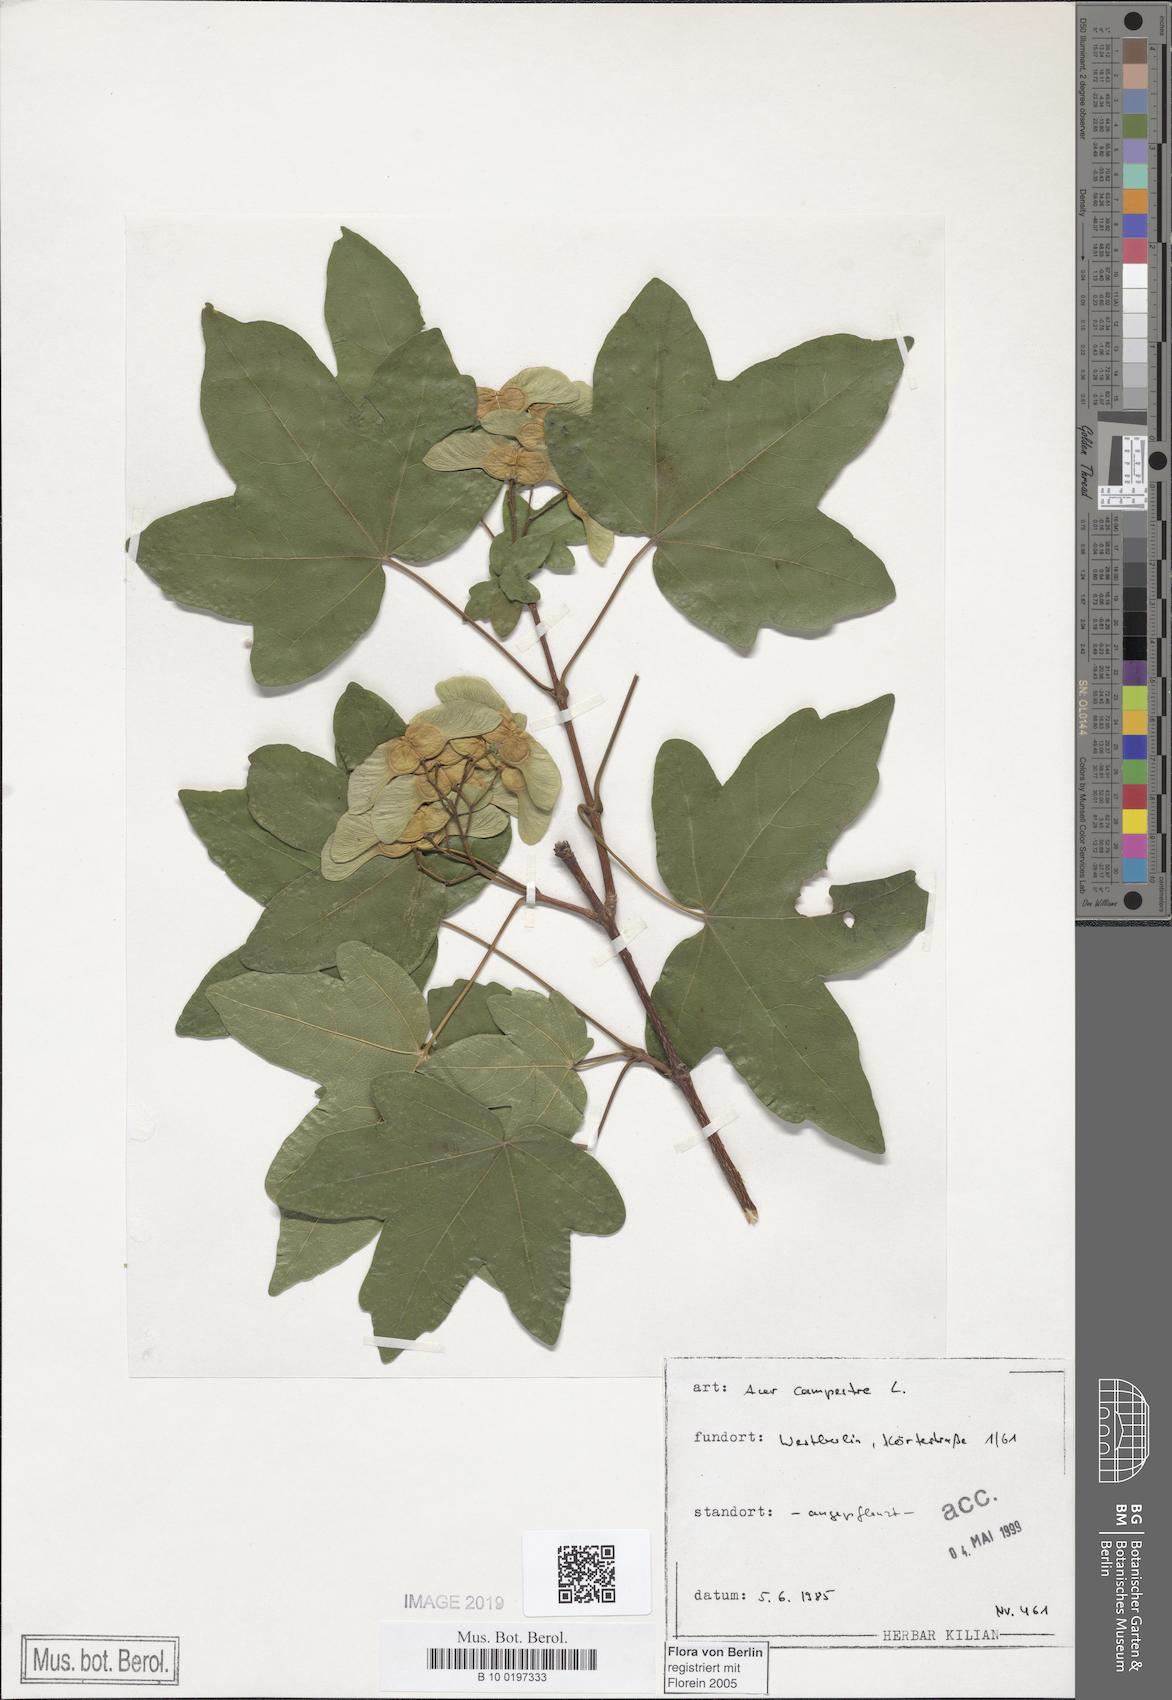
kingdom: Plantae
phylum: Tracheophyta
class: Magnoliopsida
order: Sapindales
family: Sapindaceae
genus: Acer
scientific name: Acer campestre
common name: Field maple
